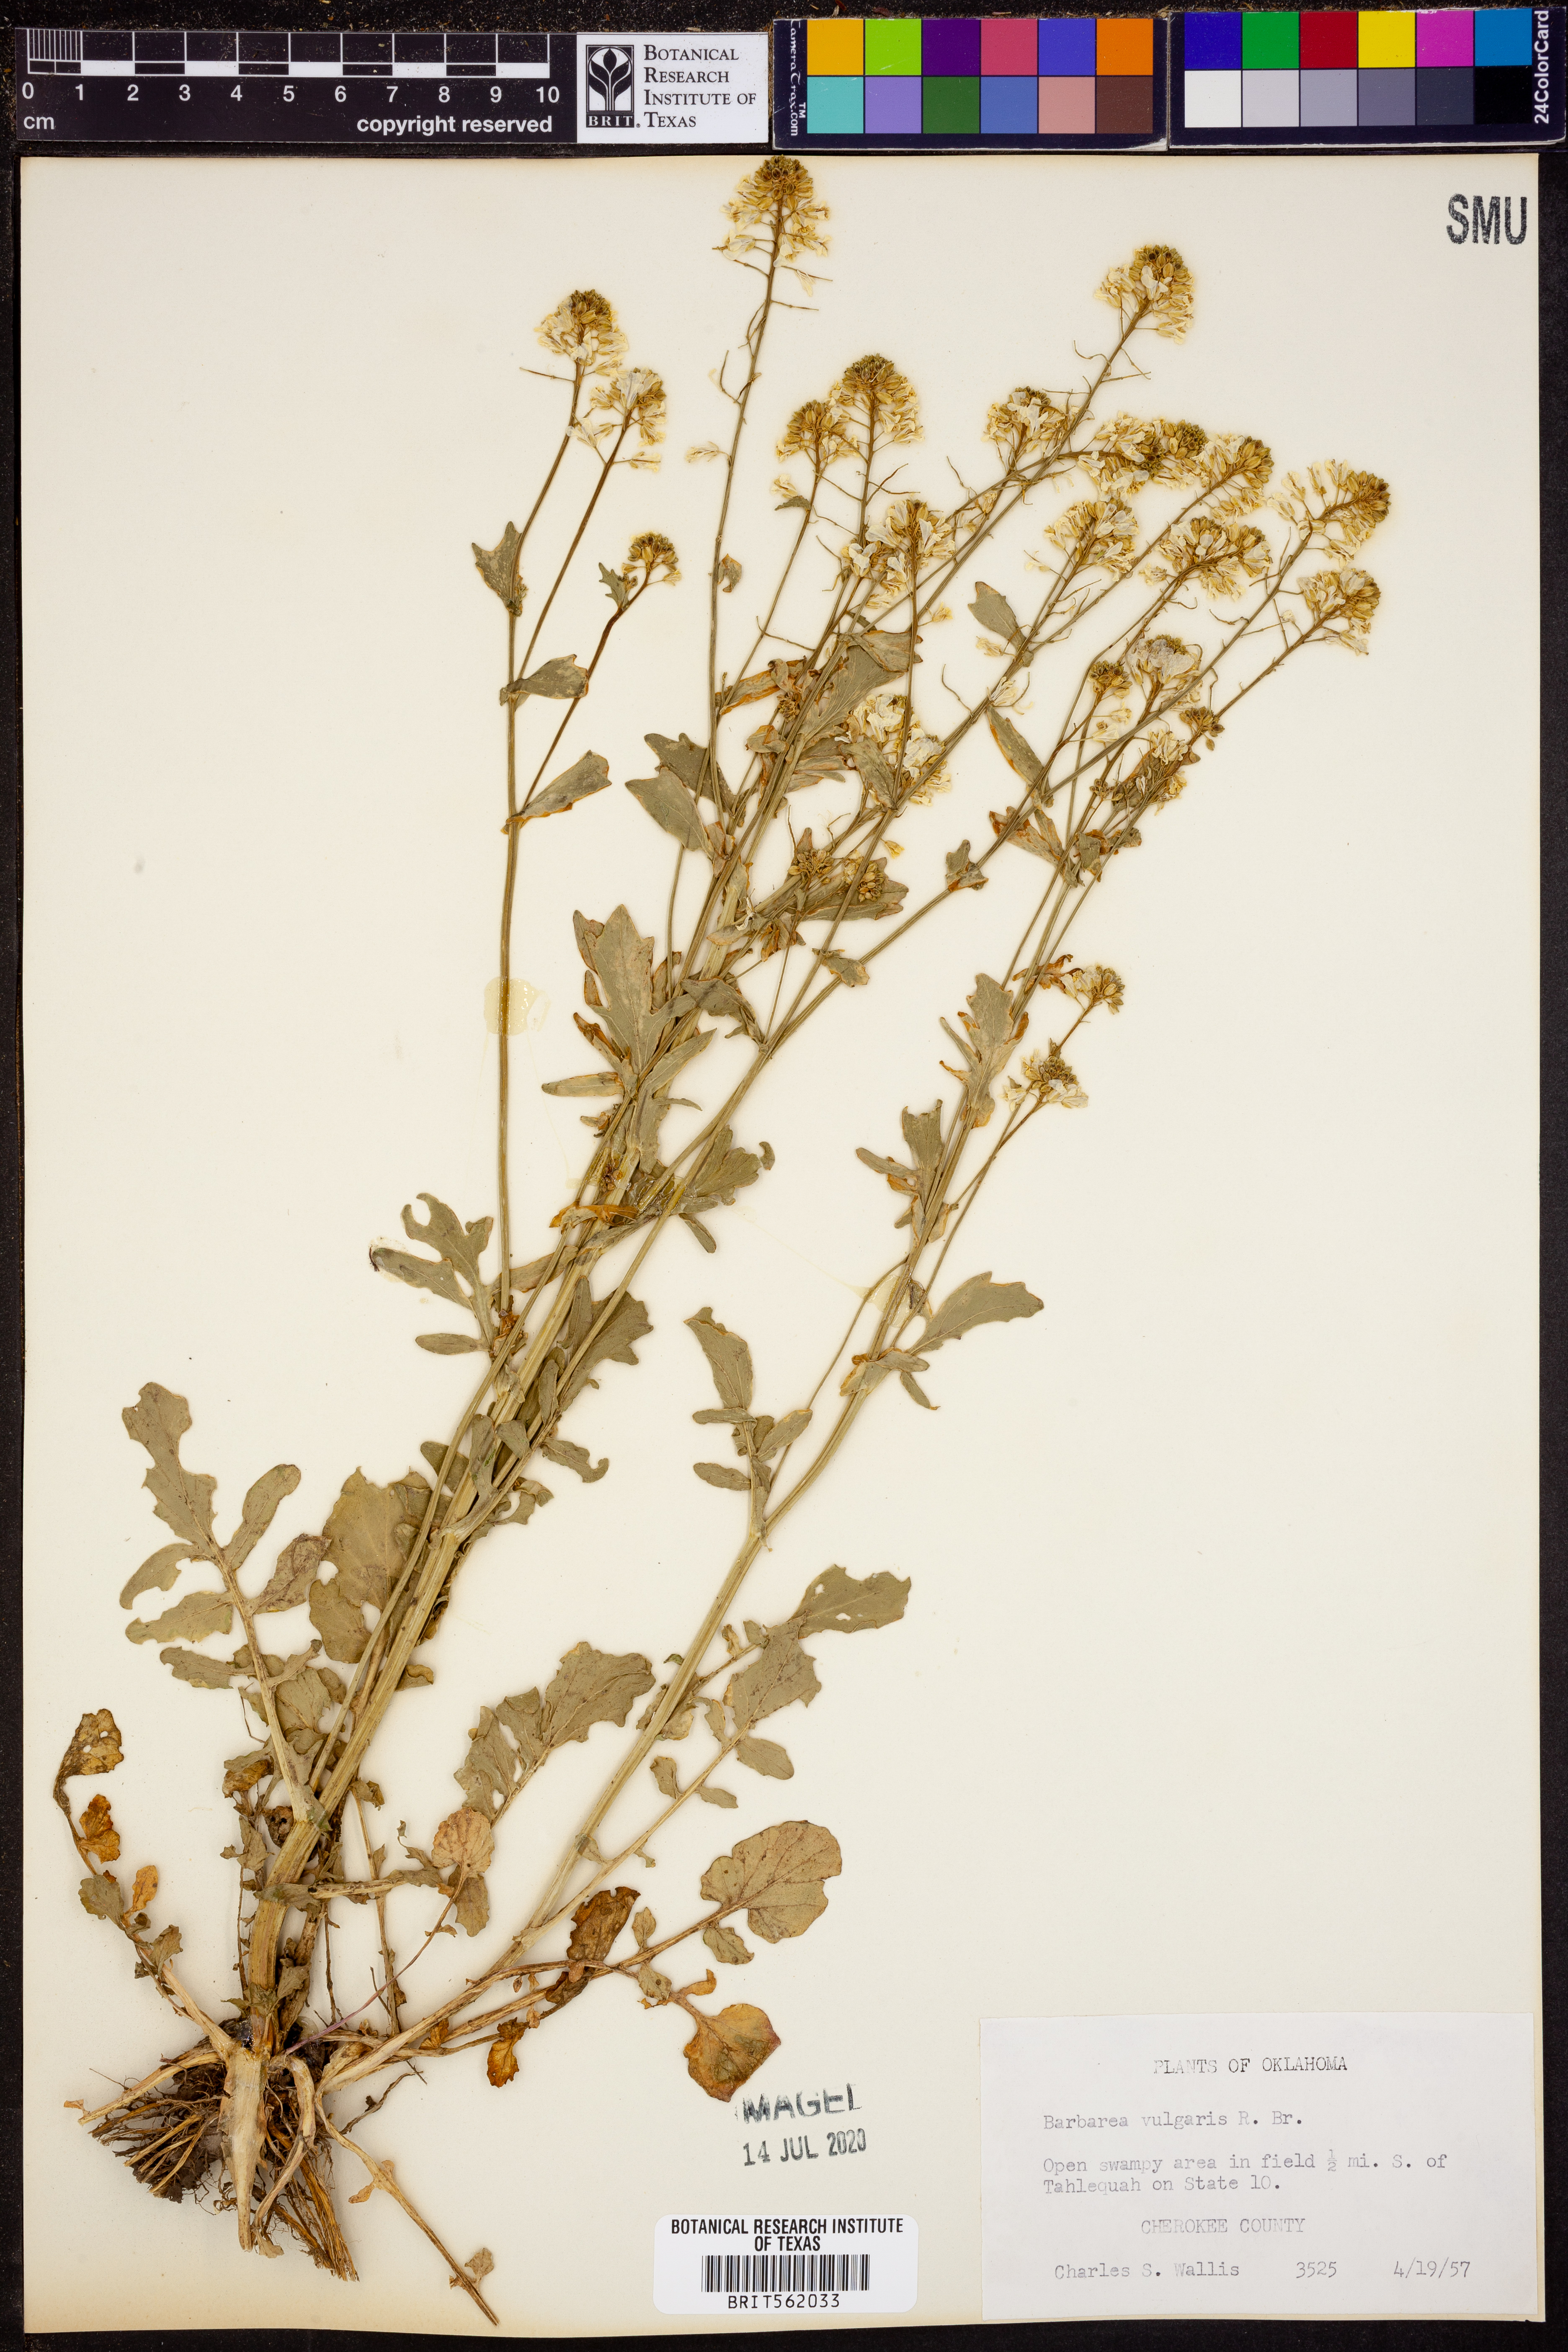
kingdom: Plantae
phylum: Tracheophyta
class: Magnoliopsida
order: Brassicales
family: Brassicaceae
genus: Barbarea
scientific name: Barbarea vulgaris
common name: Cressy-greens
